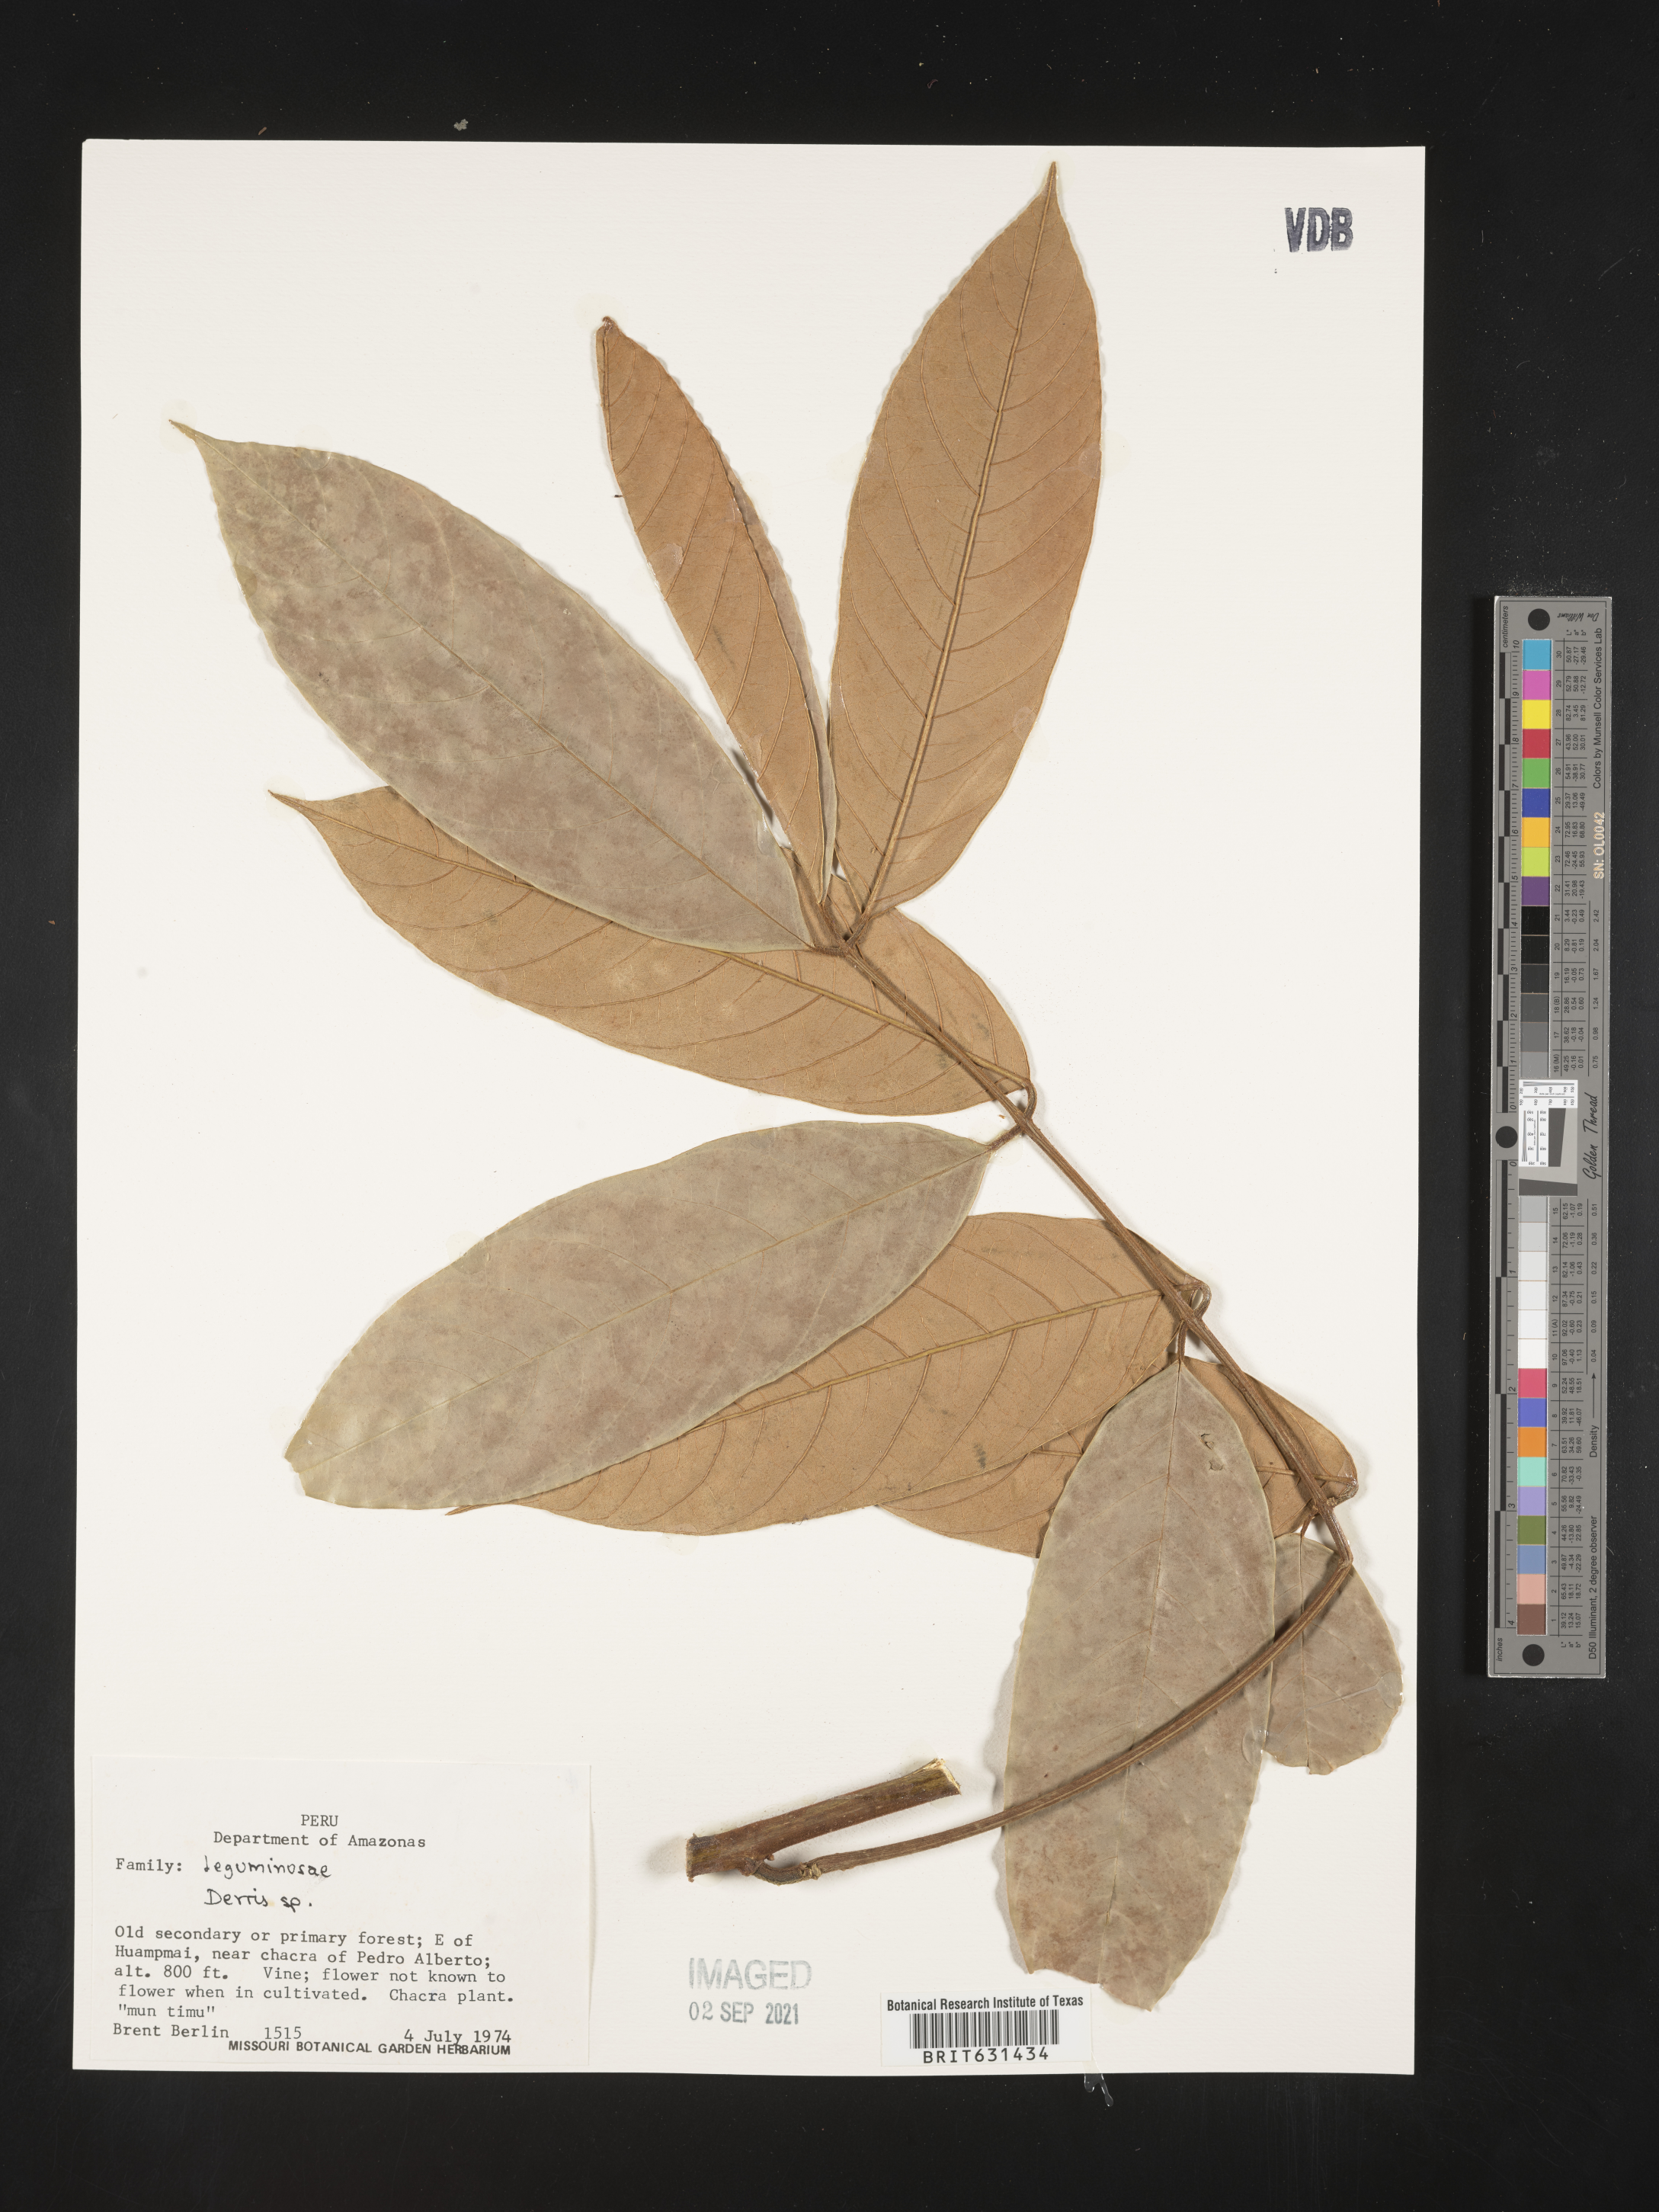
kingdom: Plantae
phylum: Tracheophyta
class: Magnoliopsida
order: Fabales
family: Fabaceae
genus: Derris
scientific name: Derris
